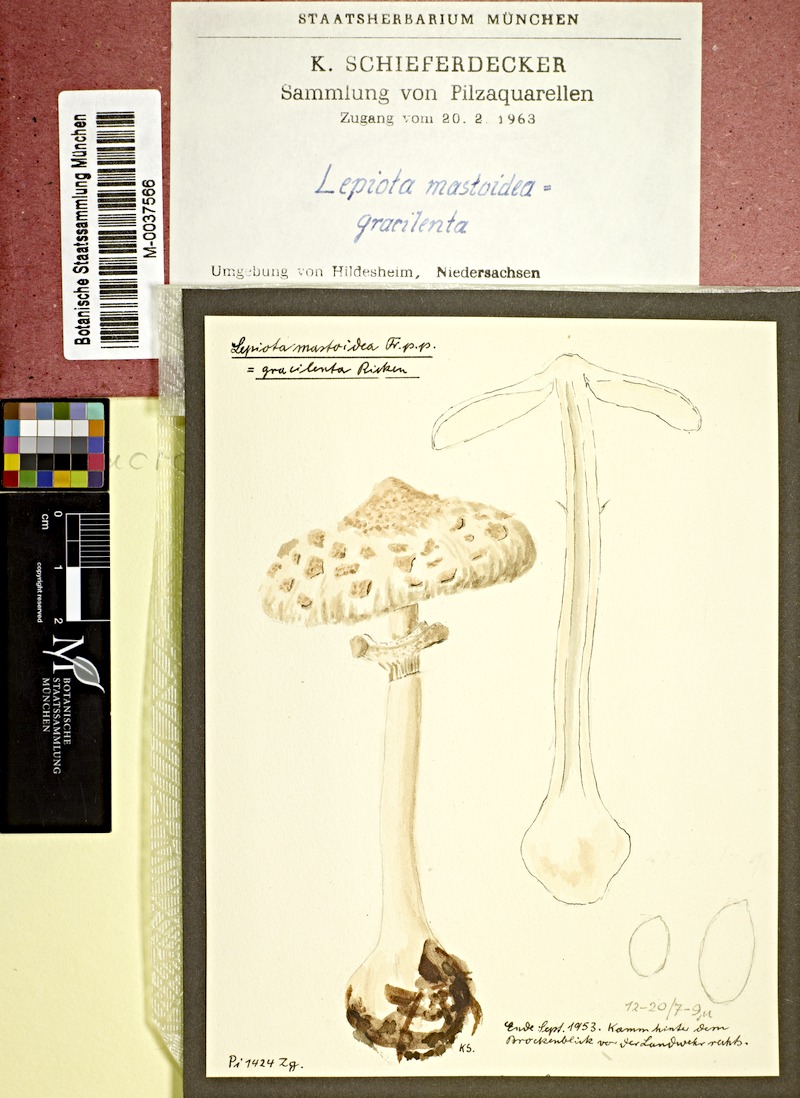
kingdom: Fungi
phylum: Basidiomycota
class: Agaricomycetes
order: Agaricales
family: Agaricaceae
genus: Macrolepiota
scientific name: Macrolepiota mastoidea
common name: Slender parasol
